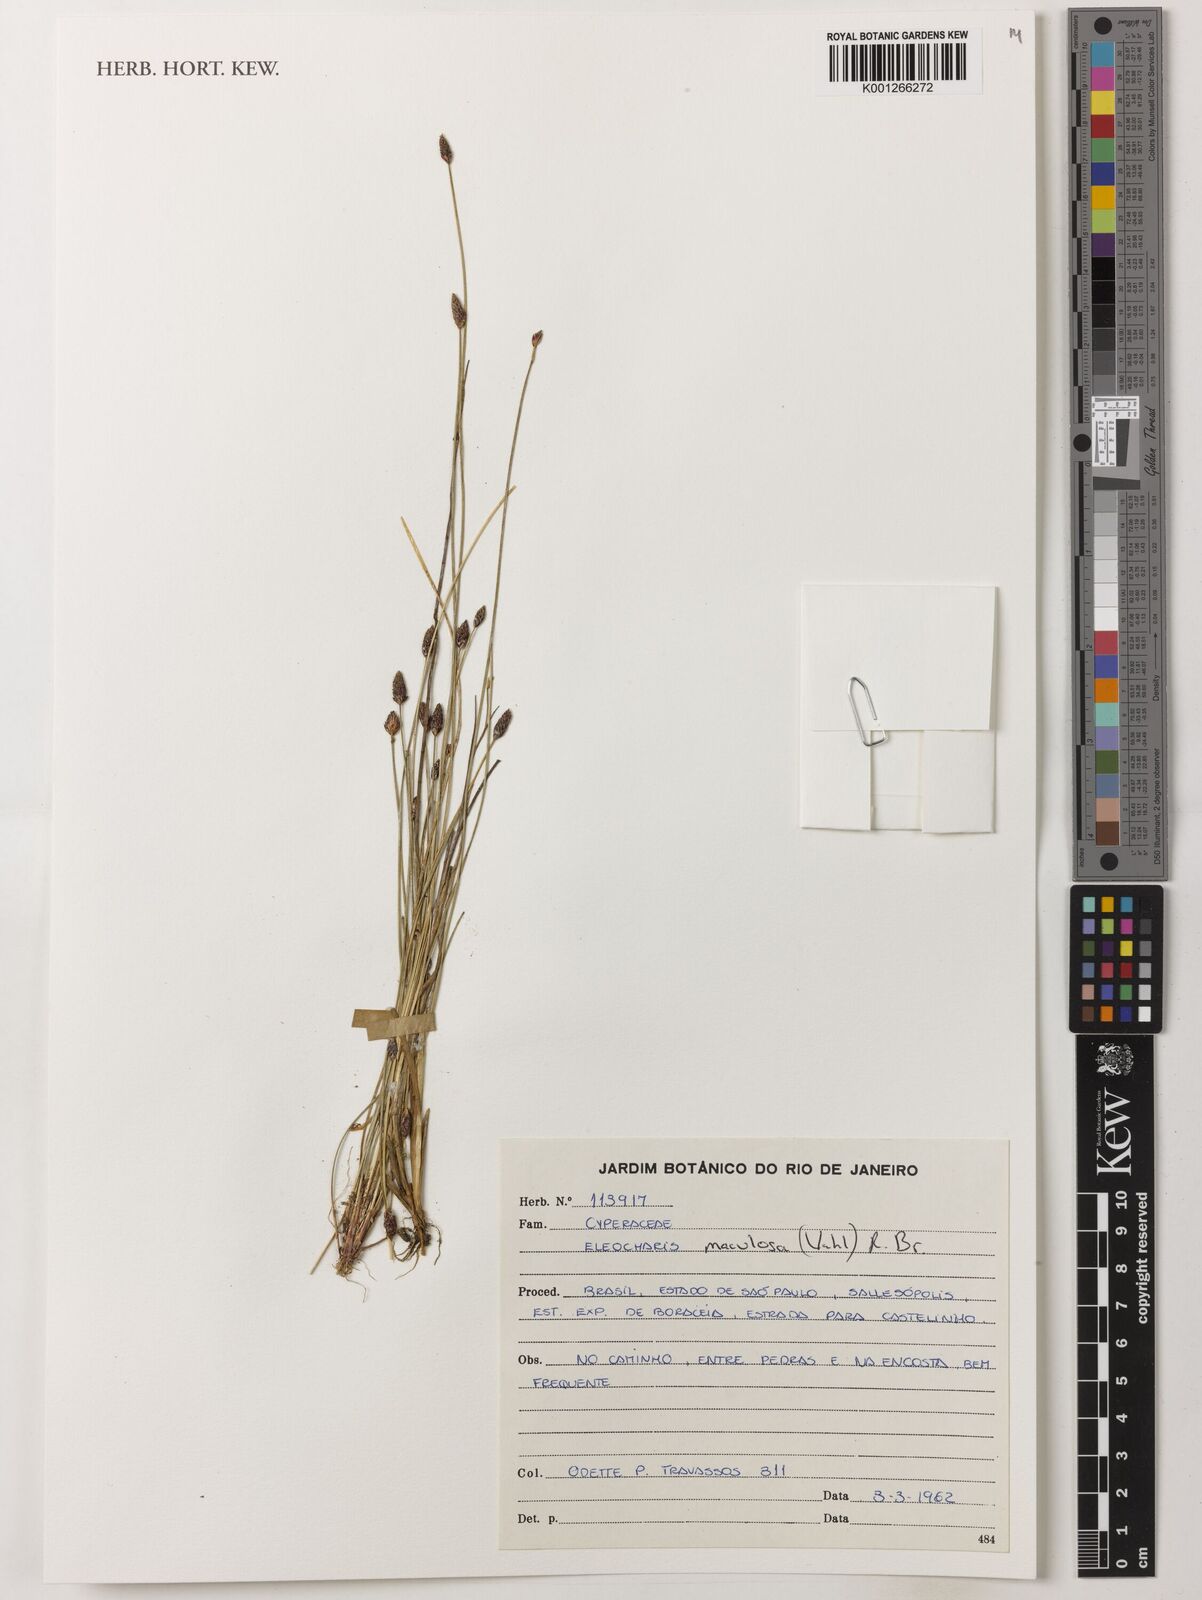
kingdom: Plantae
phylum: Tracheophyta
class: Liliopsida
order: Poales
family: Cyperaceae
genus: Eleocharis
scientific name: Eleocharis maculosa
